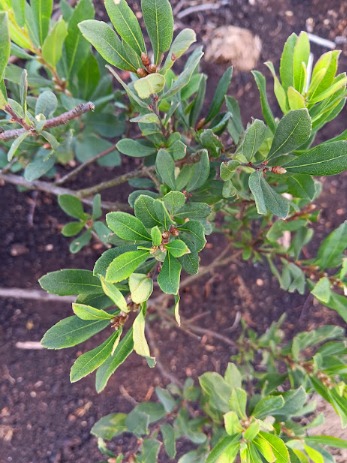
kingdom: Plantae
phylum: Tracheophyta
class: Magnoliopsida
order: Fagales
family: Myricaceae
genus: Myrica
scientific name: Myrica gale
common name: Pors
